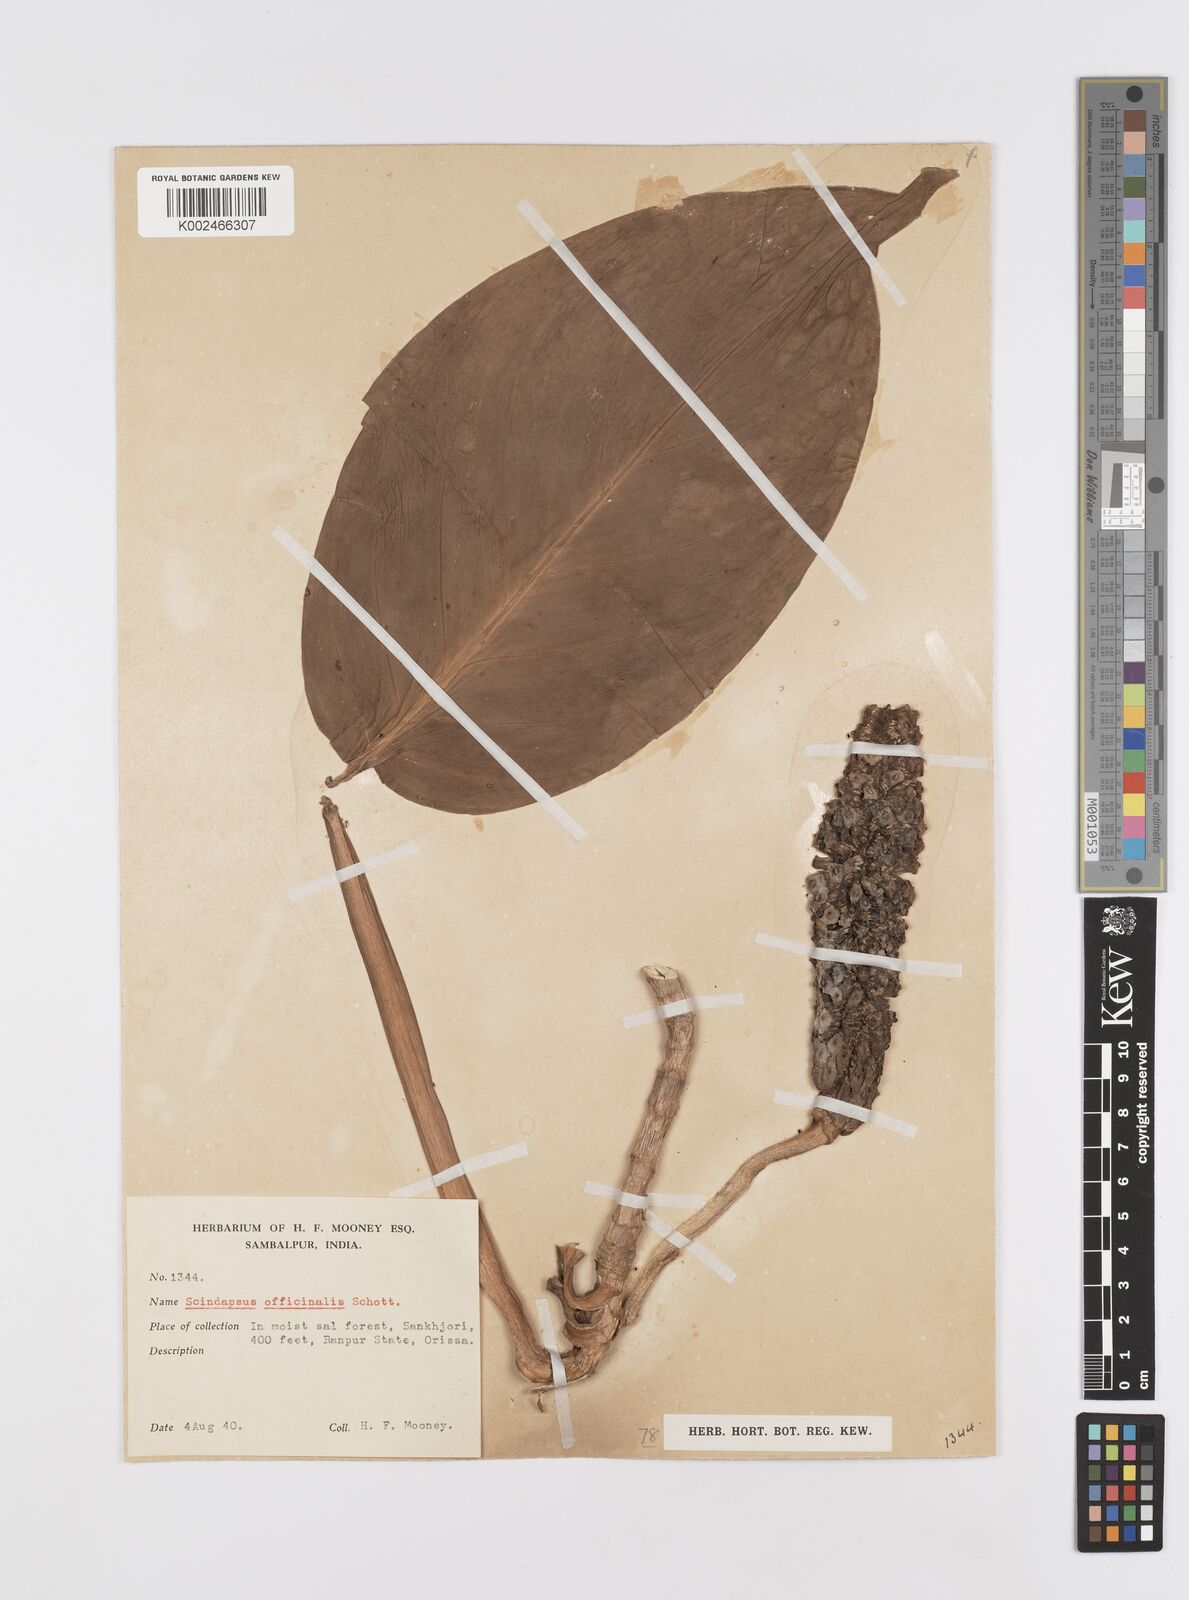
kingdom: Plantae
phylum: Tracheophyta
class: Liliopsida
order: Alismatales
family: Araceae
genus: Scindapsus
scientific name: Scindapsus officinalis
